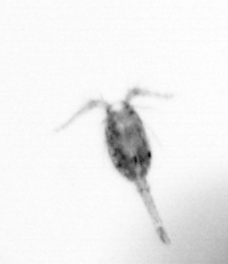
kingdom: Animalia
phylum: Arthropoda
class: Copepoda
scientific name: Copepoda
